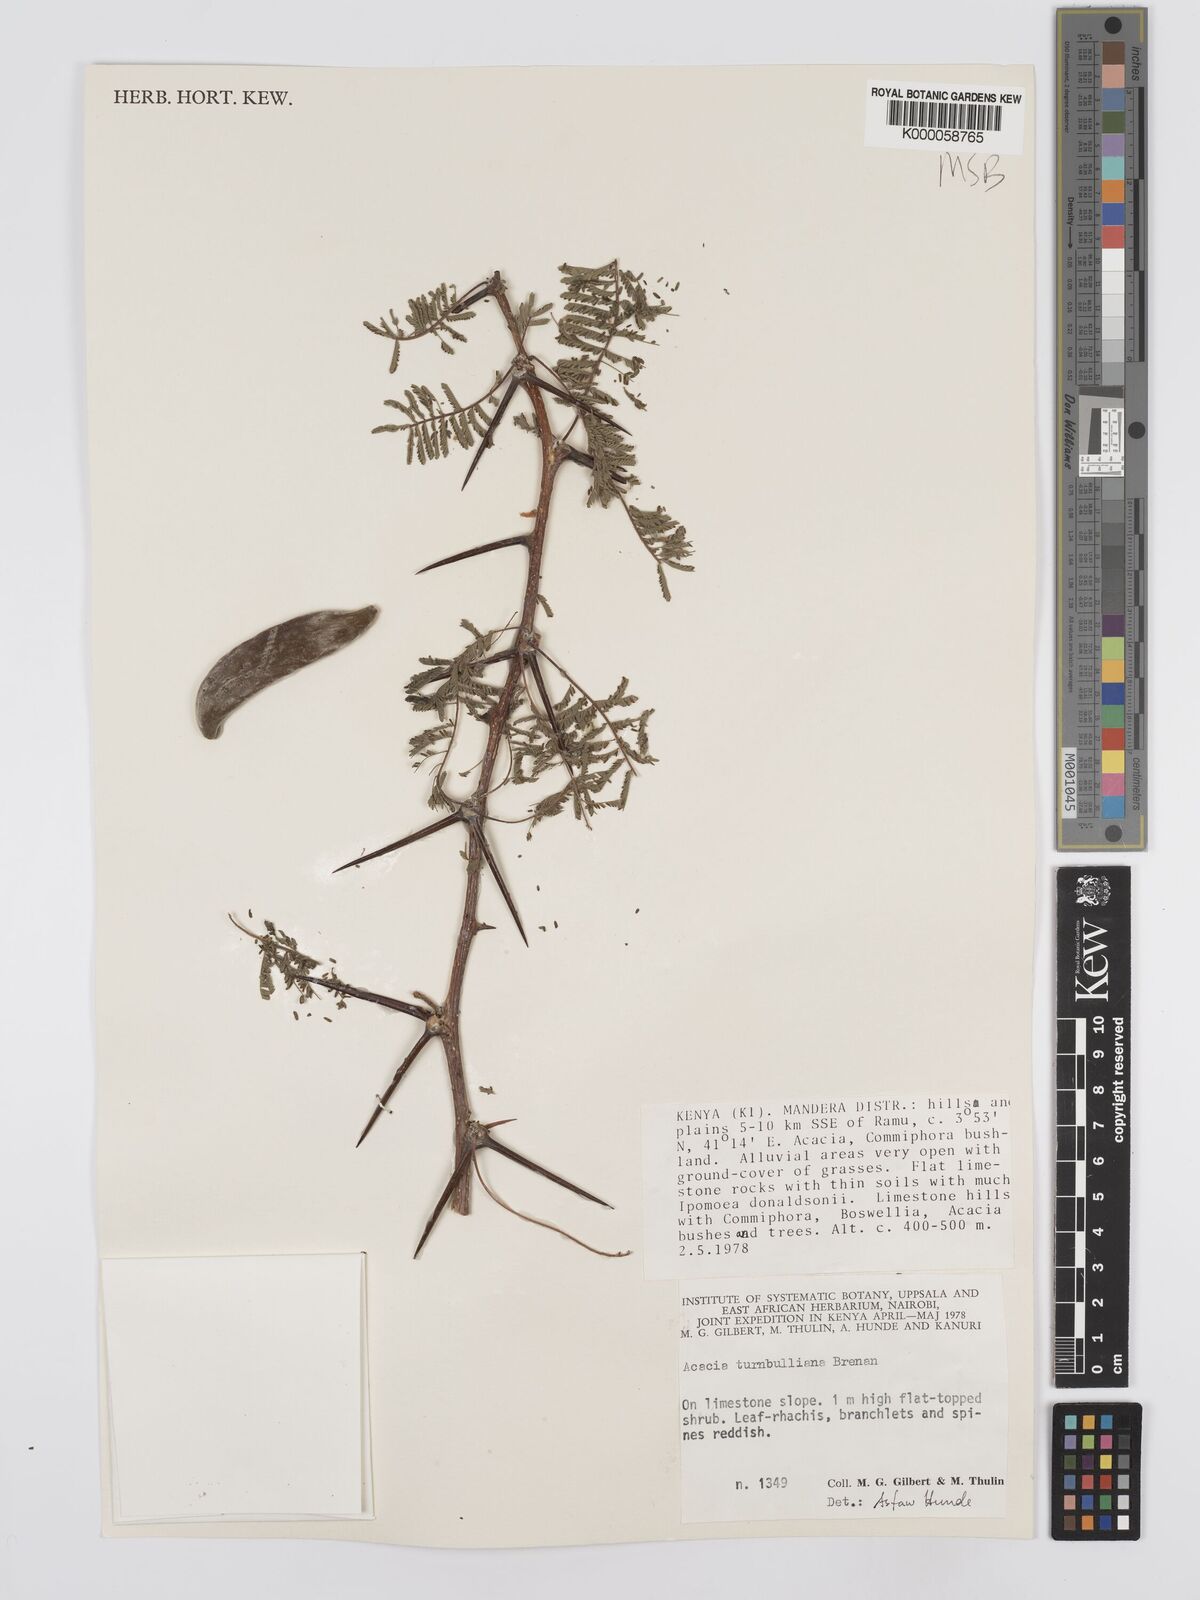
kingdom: Plantae
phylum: Tracheophyta
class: Magnoliopsida
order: Fabales
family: Fabaceae
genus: Vachellia
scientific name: Vachellia edgeworthii
